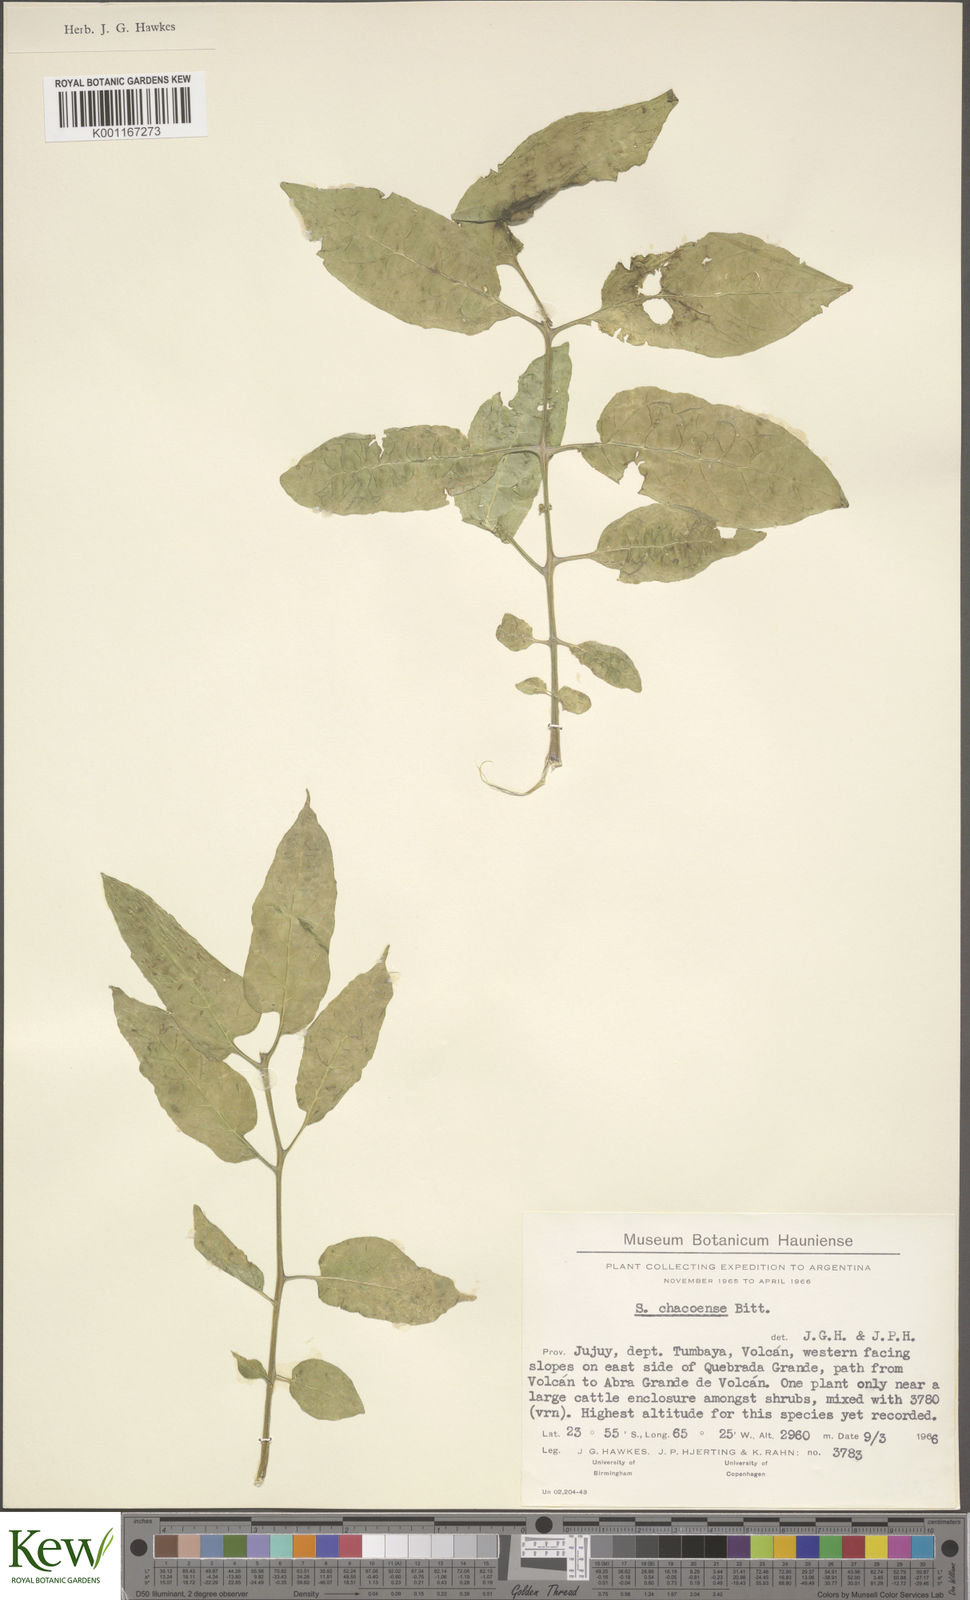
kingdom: Plantae
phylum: Tracheophyta
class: Magnoliopsida
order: Solanales
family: Solanaceae
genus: Solanum
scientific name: Solanum chacoense
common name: Chaco potato
